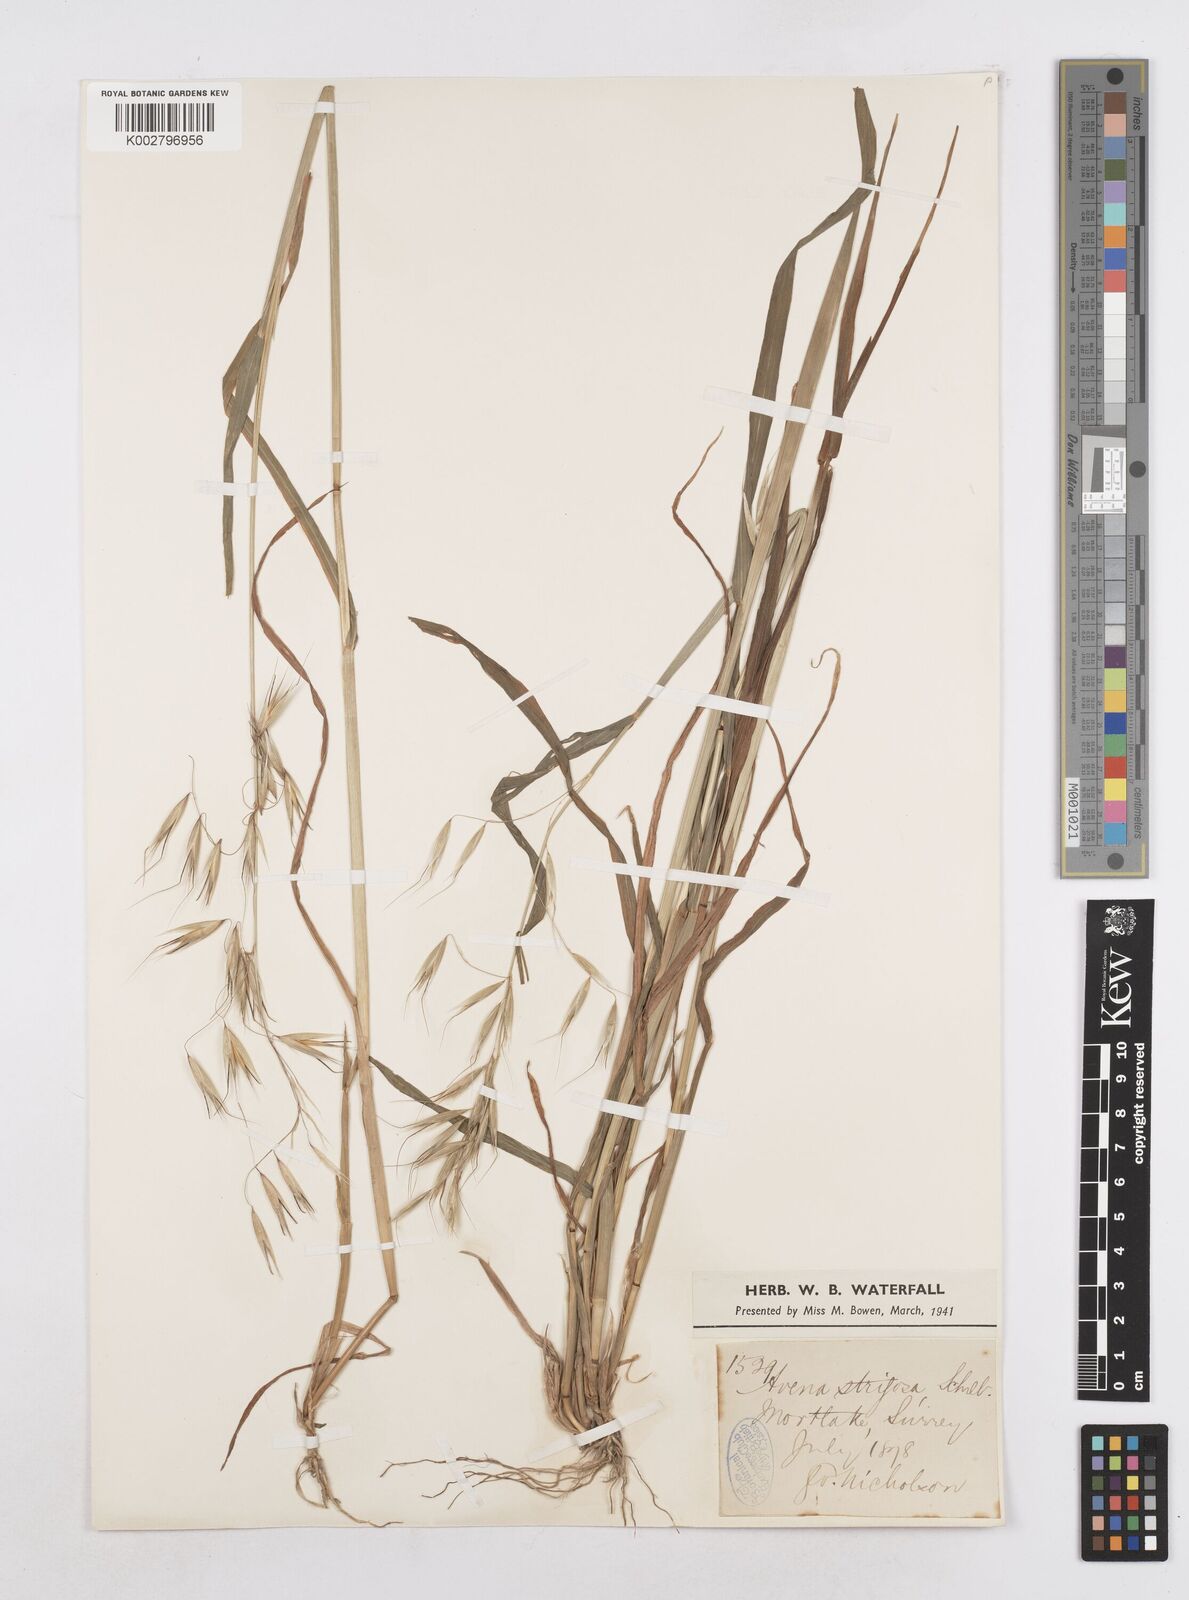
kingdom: Plantae
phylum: Tracheophyta
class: Liliopsida
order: Poales
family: Poaceae
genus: Avena
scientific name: Avena strigosa
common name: Bristle oat
